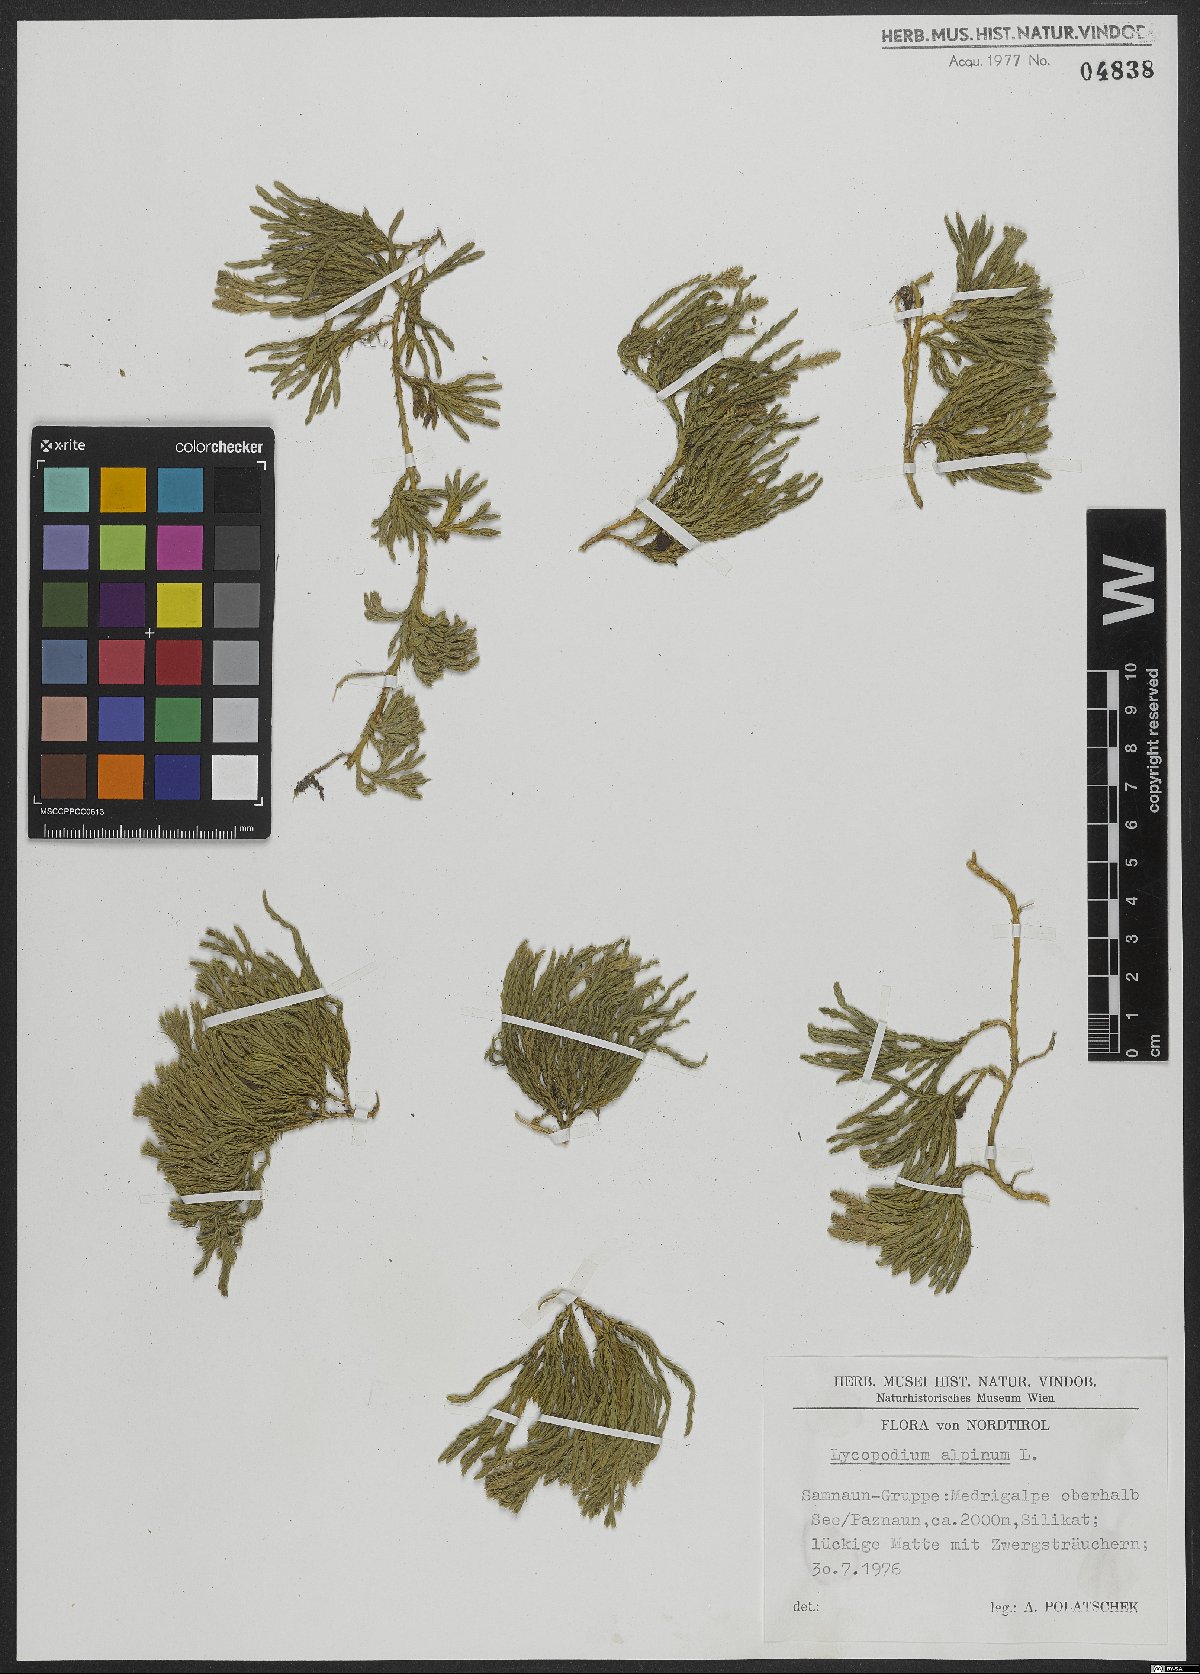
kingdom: Plantae
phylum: Tracheophyta
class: Lycopodiopsida
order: Lycopodiales
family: Lycopodiaceae
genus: Diphasiastrum
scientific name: Diphasiastrum alpinum
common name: Alpine clubmoss
